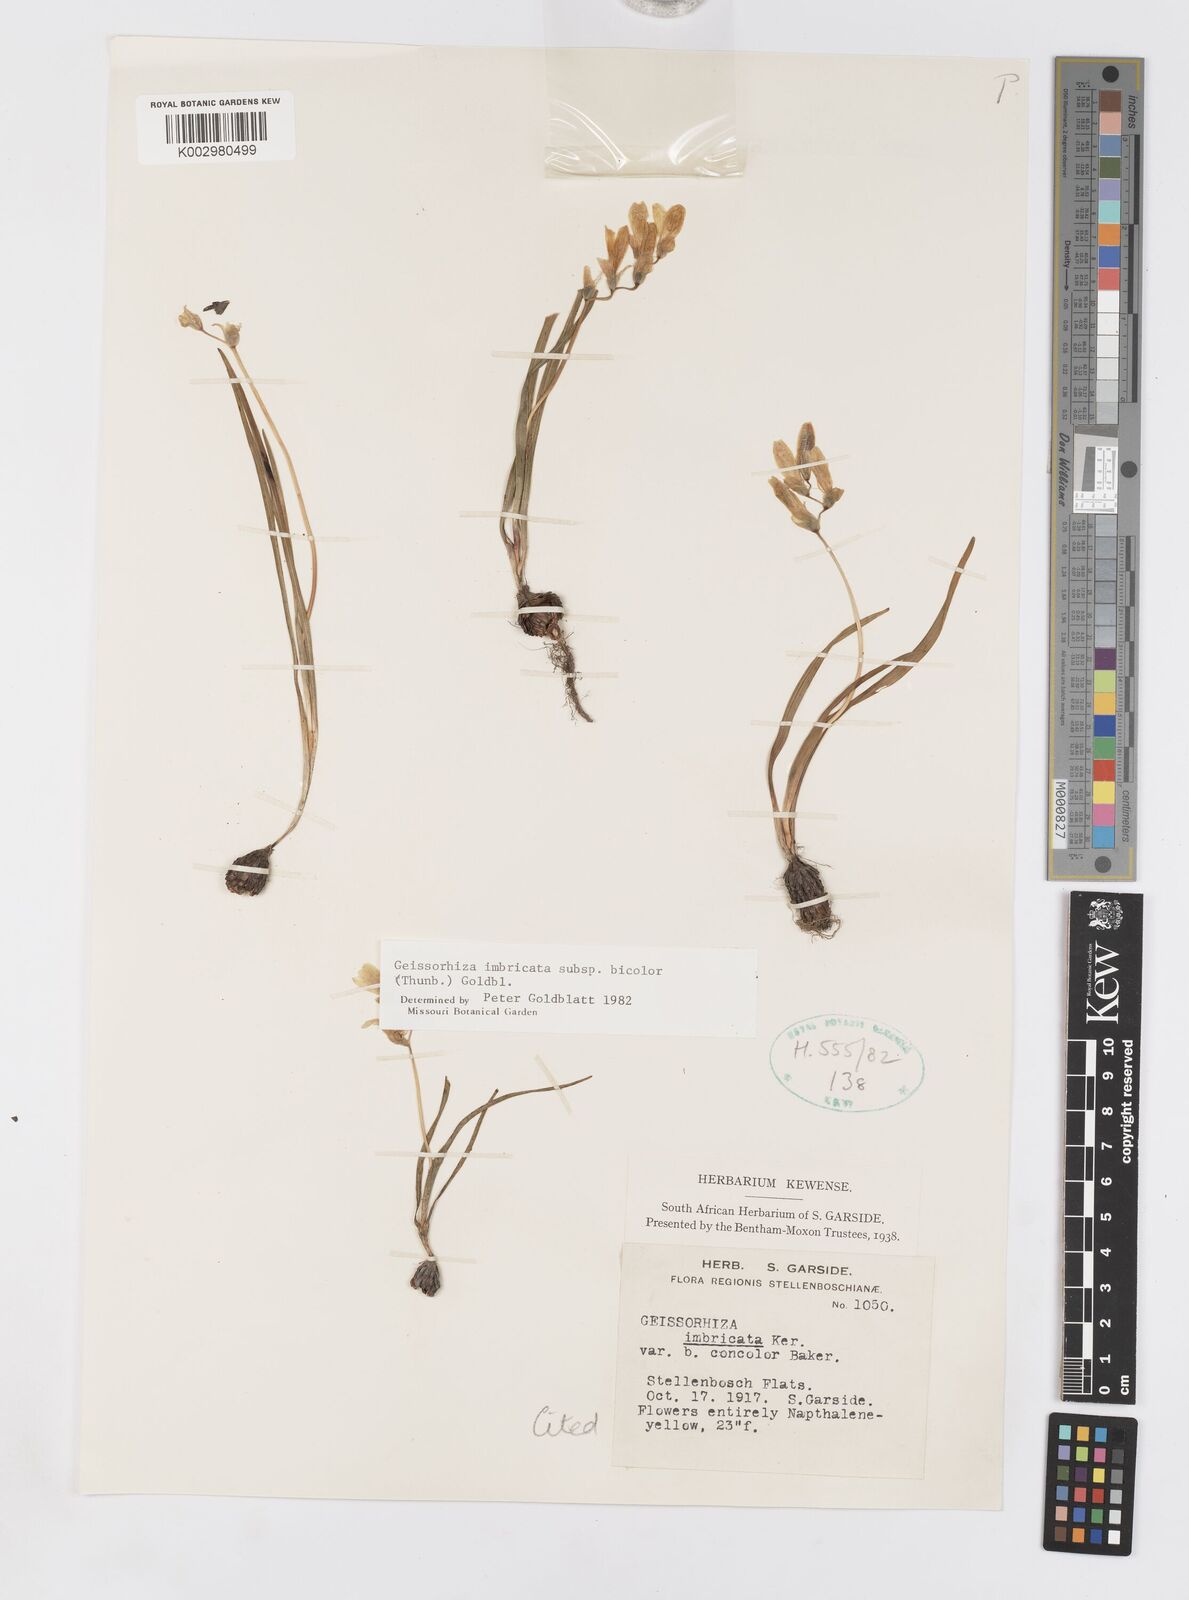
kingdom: Plantae
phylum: Tracheophyta
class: Liliopsida
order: Asparagales
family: Iridaceae
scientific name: Iridaceae
